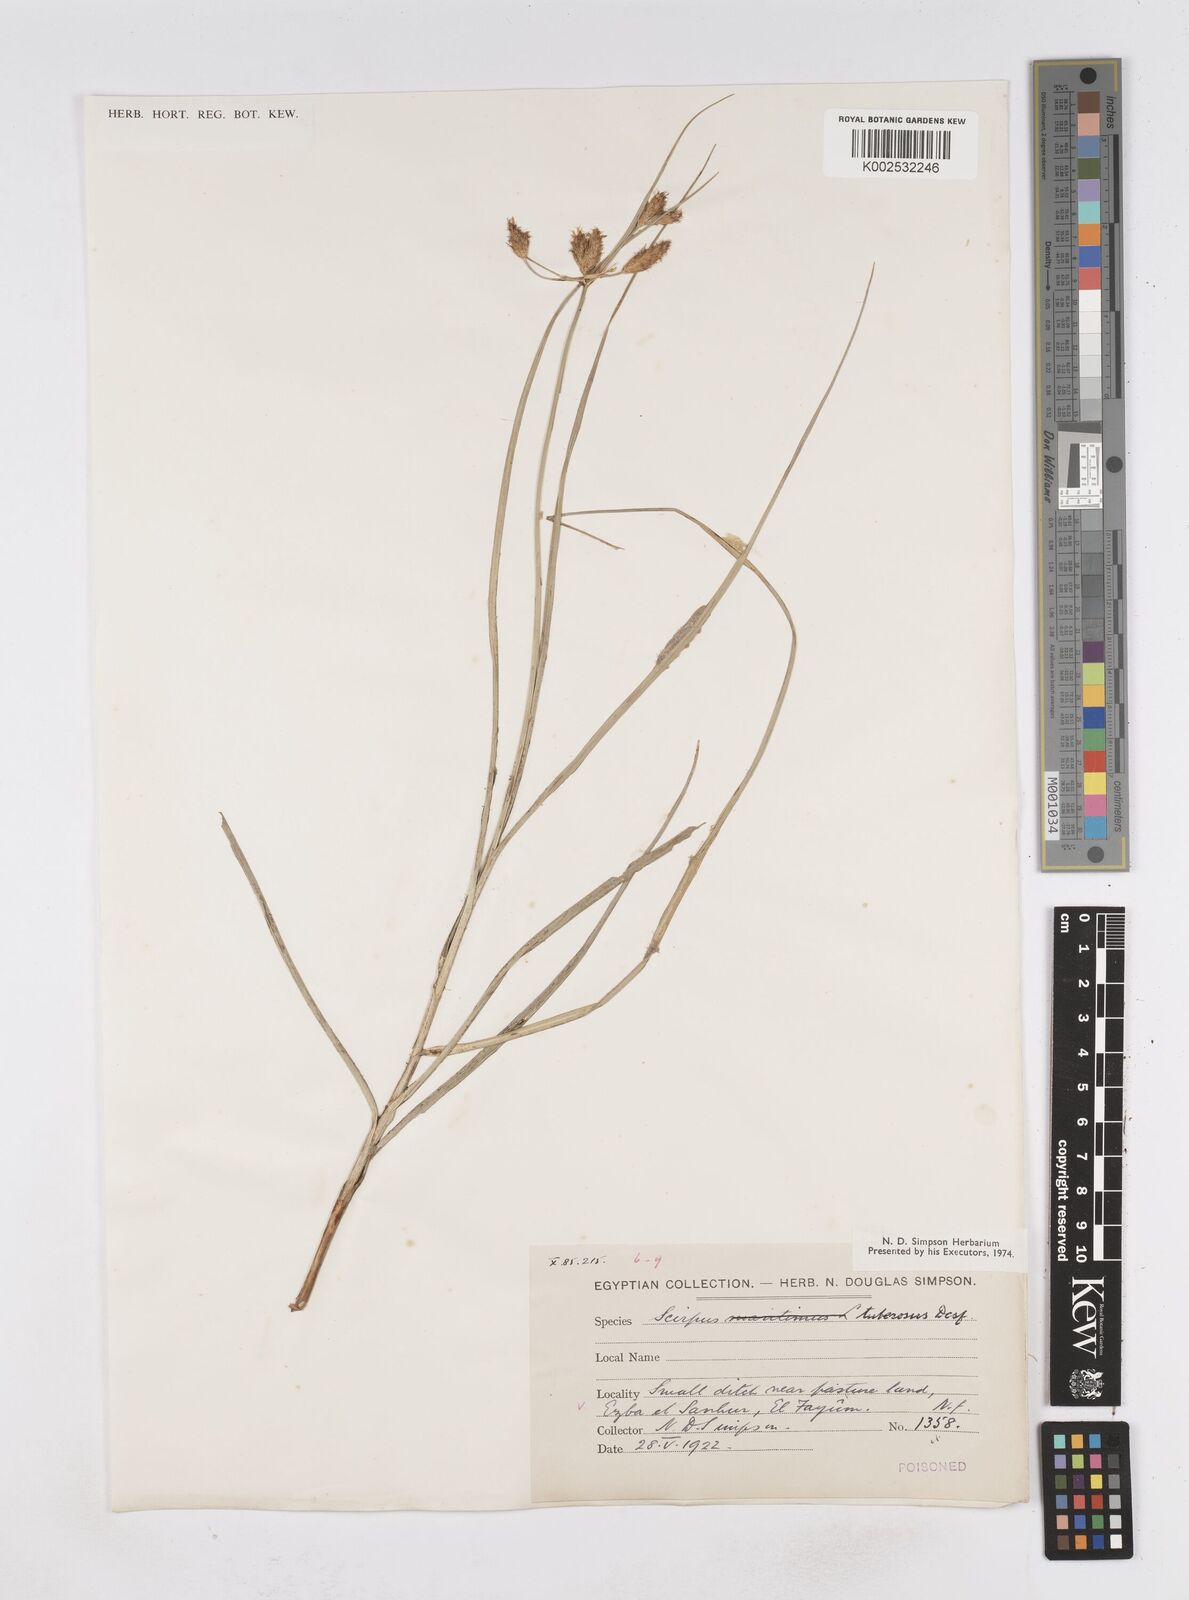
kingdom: Plantae
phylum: Tracheophyta
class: Liliopsida
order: Poales
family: Cyperaceae
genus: Bolboschoenus
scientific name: Bolboschoenus maritimus
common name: Sea club-rush
